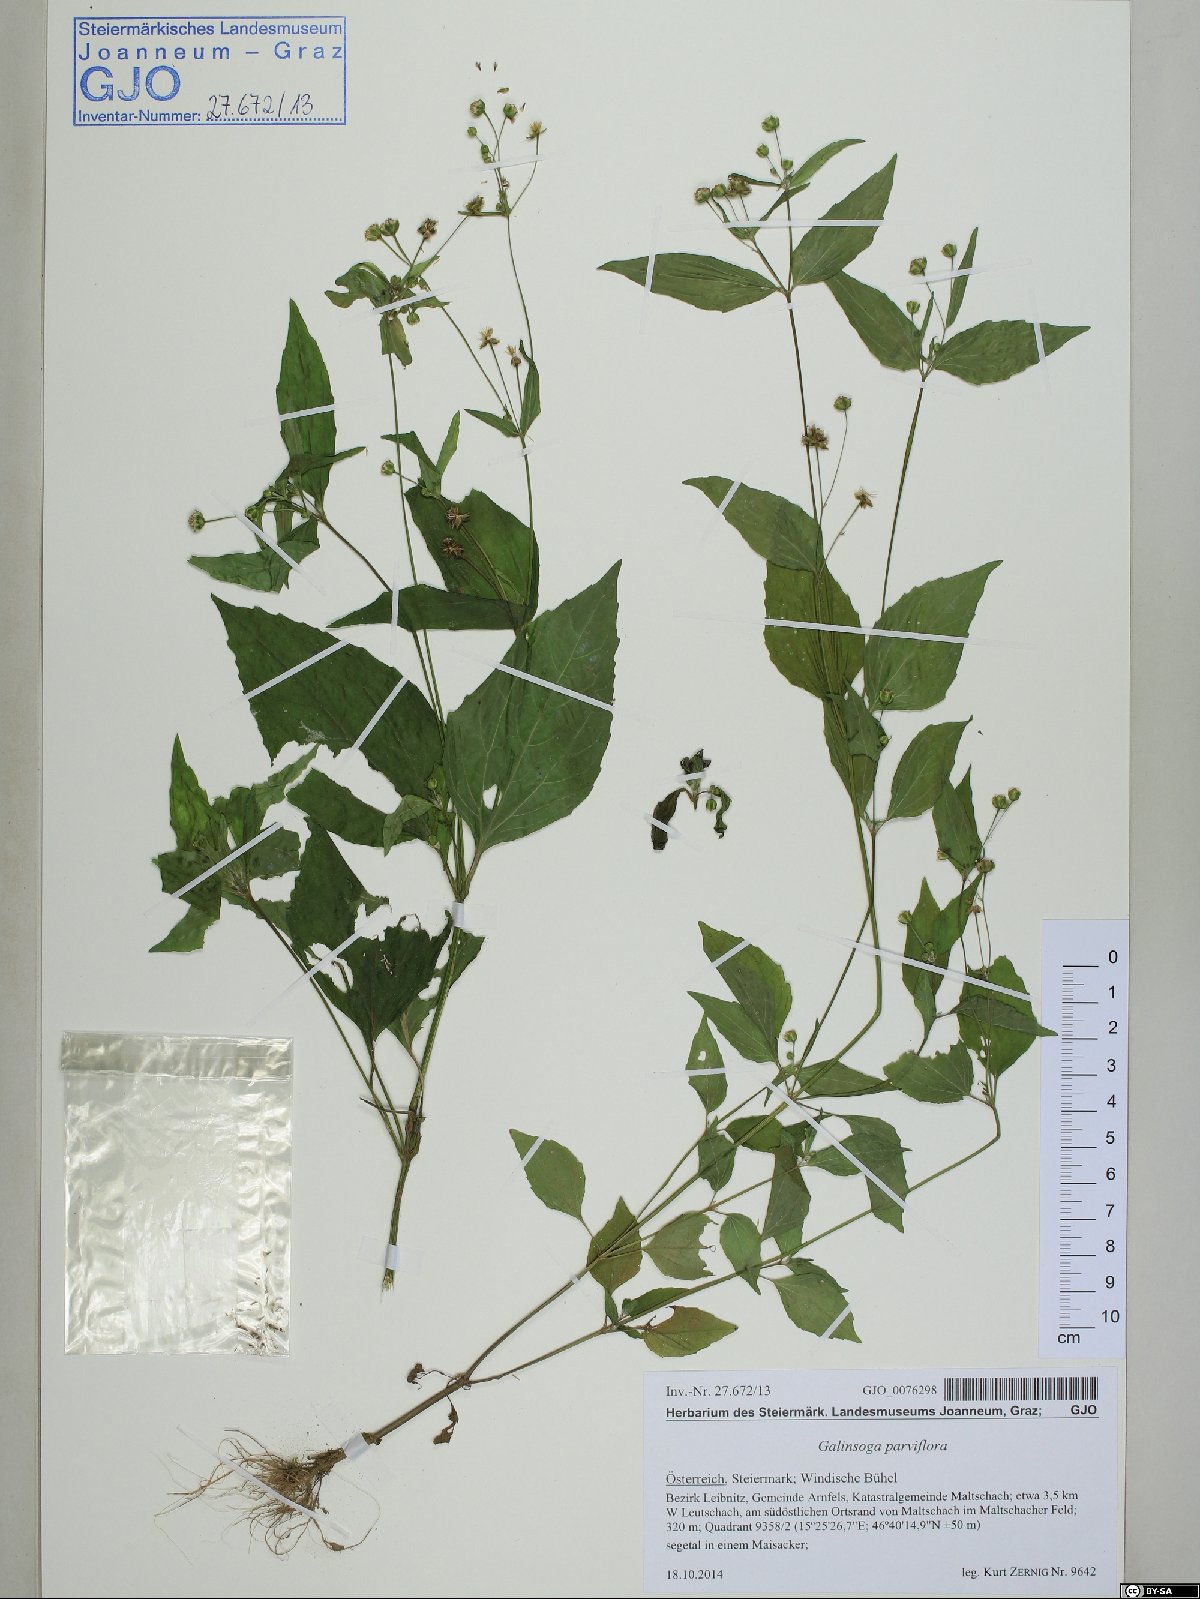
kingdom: Plantae
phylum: Tracheophyta
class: Magnoliopsida
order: Asterales
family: Asteraceae
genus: Galinsoga
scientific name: Galinsoga parviflora
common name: Gallant soldier
